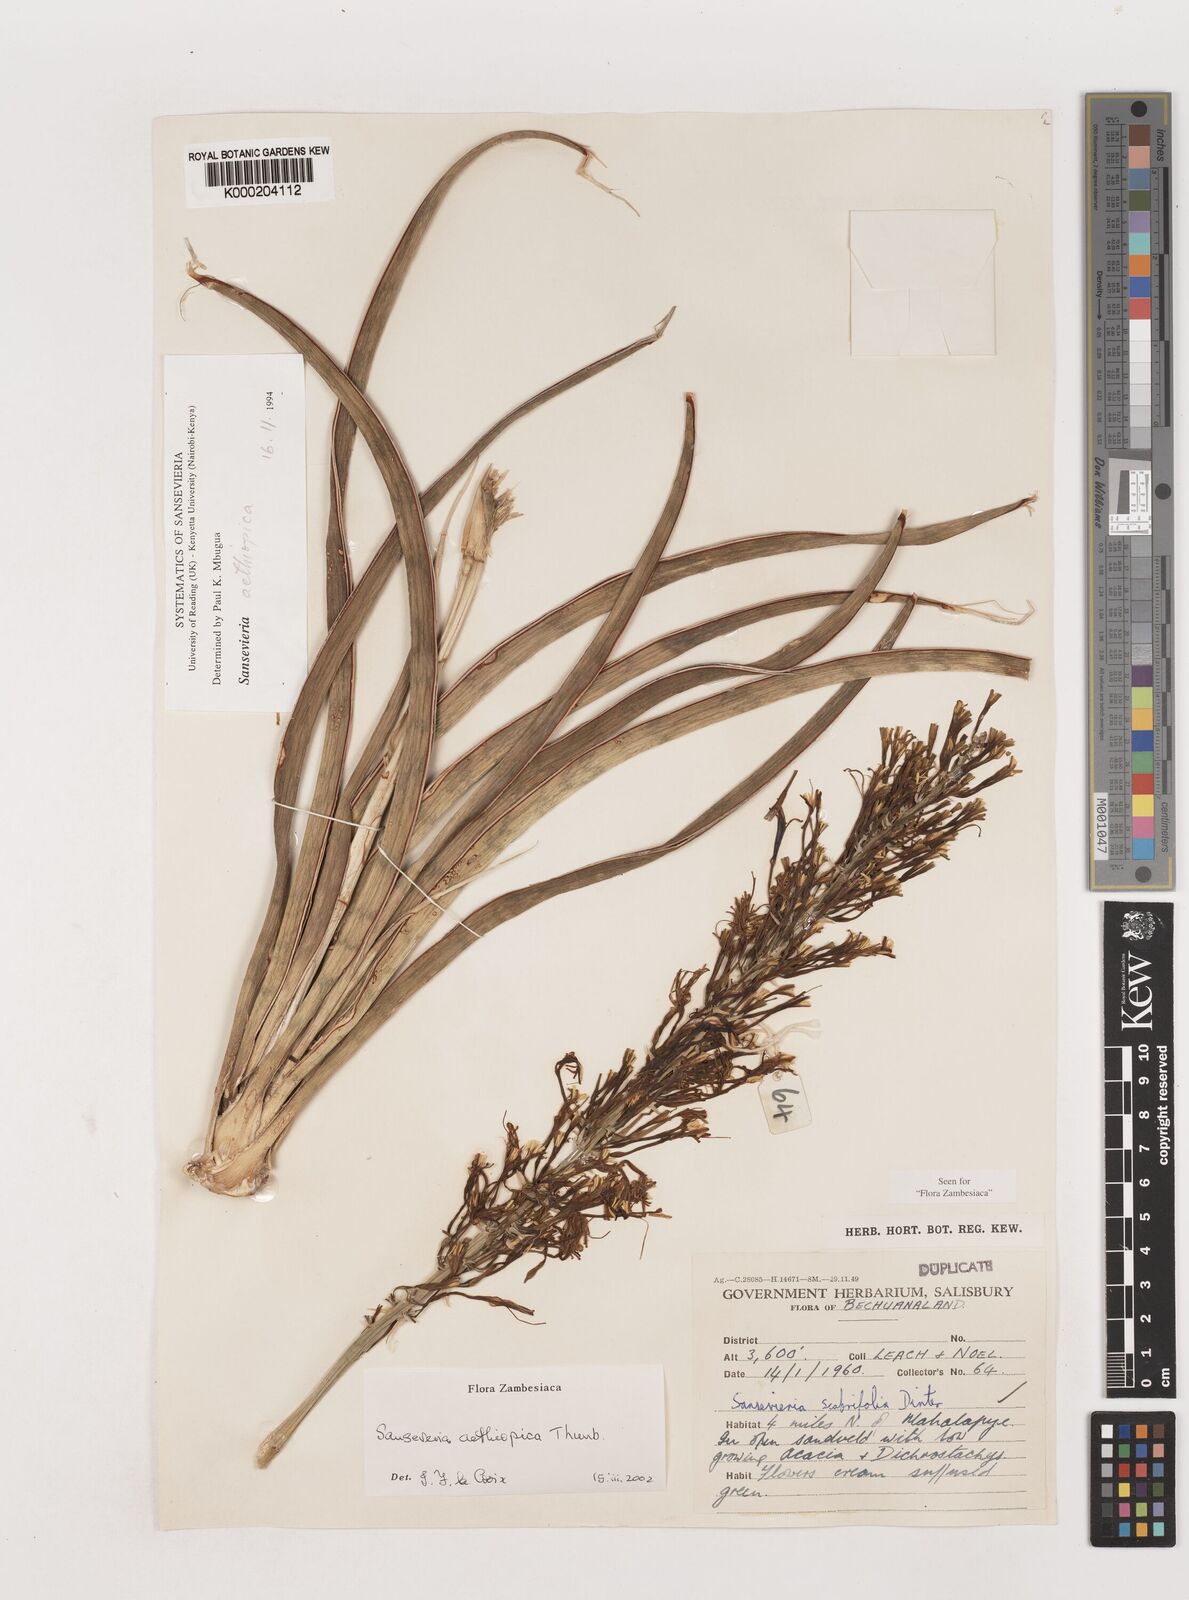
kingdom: Plantae
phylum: Tracheophyta
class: Liliopsida
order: Asparagales
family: Asparagaceae
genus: Dracaena
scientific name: Dracaena aethiopica
